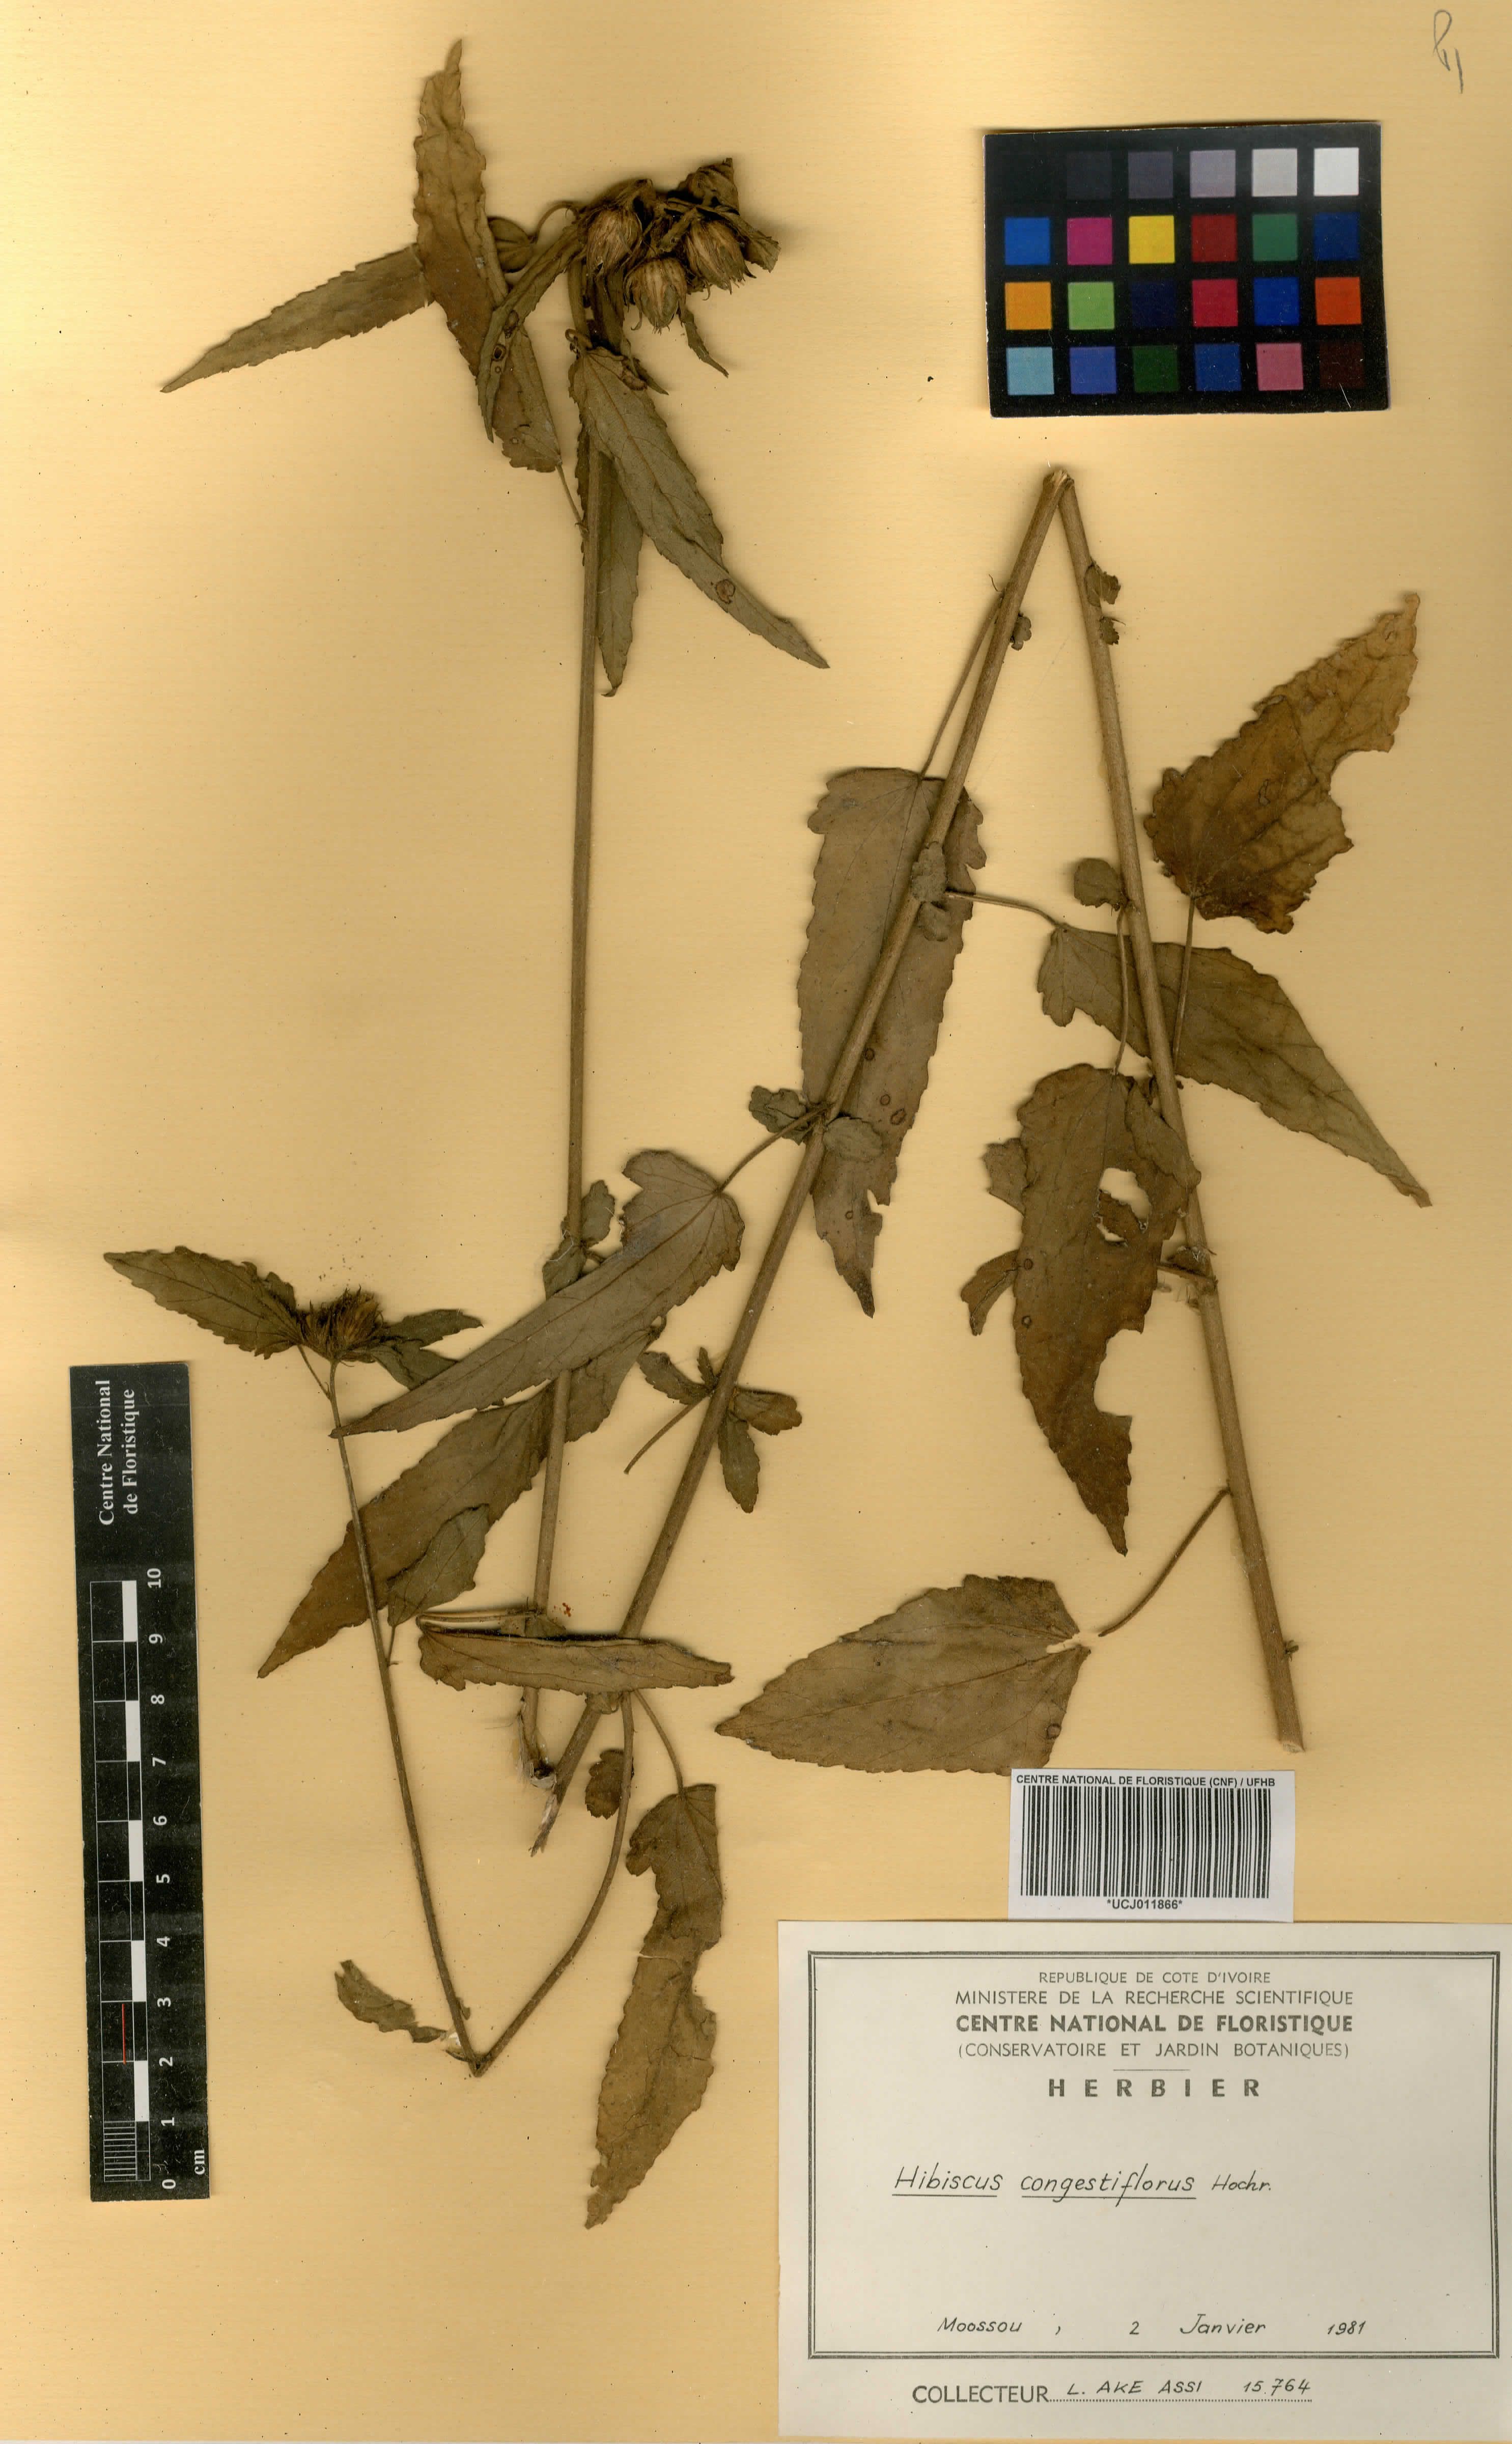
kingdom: Plantae
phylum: Tracheophyta
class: Magnoliopsida
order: Malvales
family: Malvaceae
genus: Hibiscus
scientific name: Hibiscus congestiflorus
